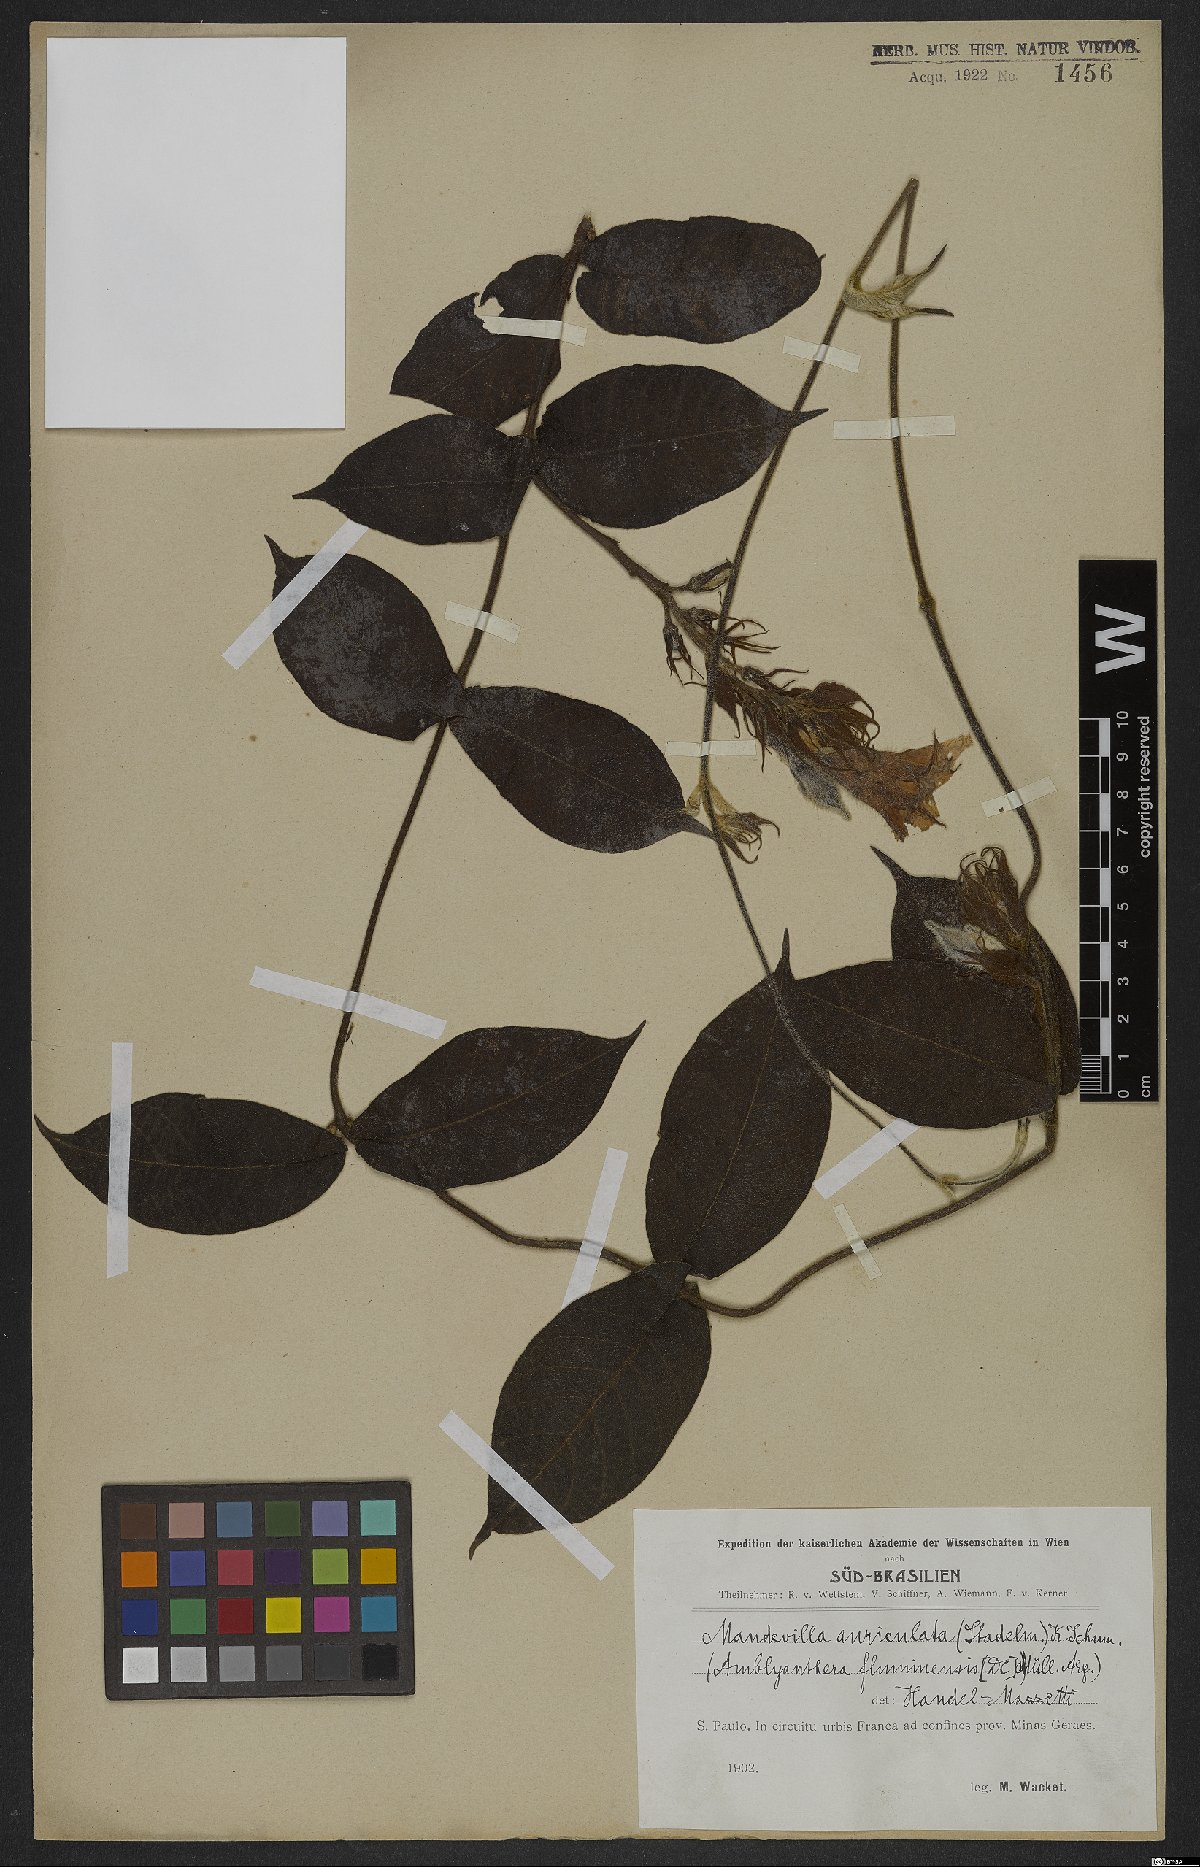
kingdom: Plantae
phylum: Tracheophyta
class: Magnoliopsida
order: Gentianales
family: Apocynaceae
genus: Mandevilla
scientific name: Mandevilla hirsuta
